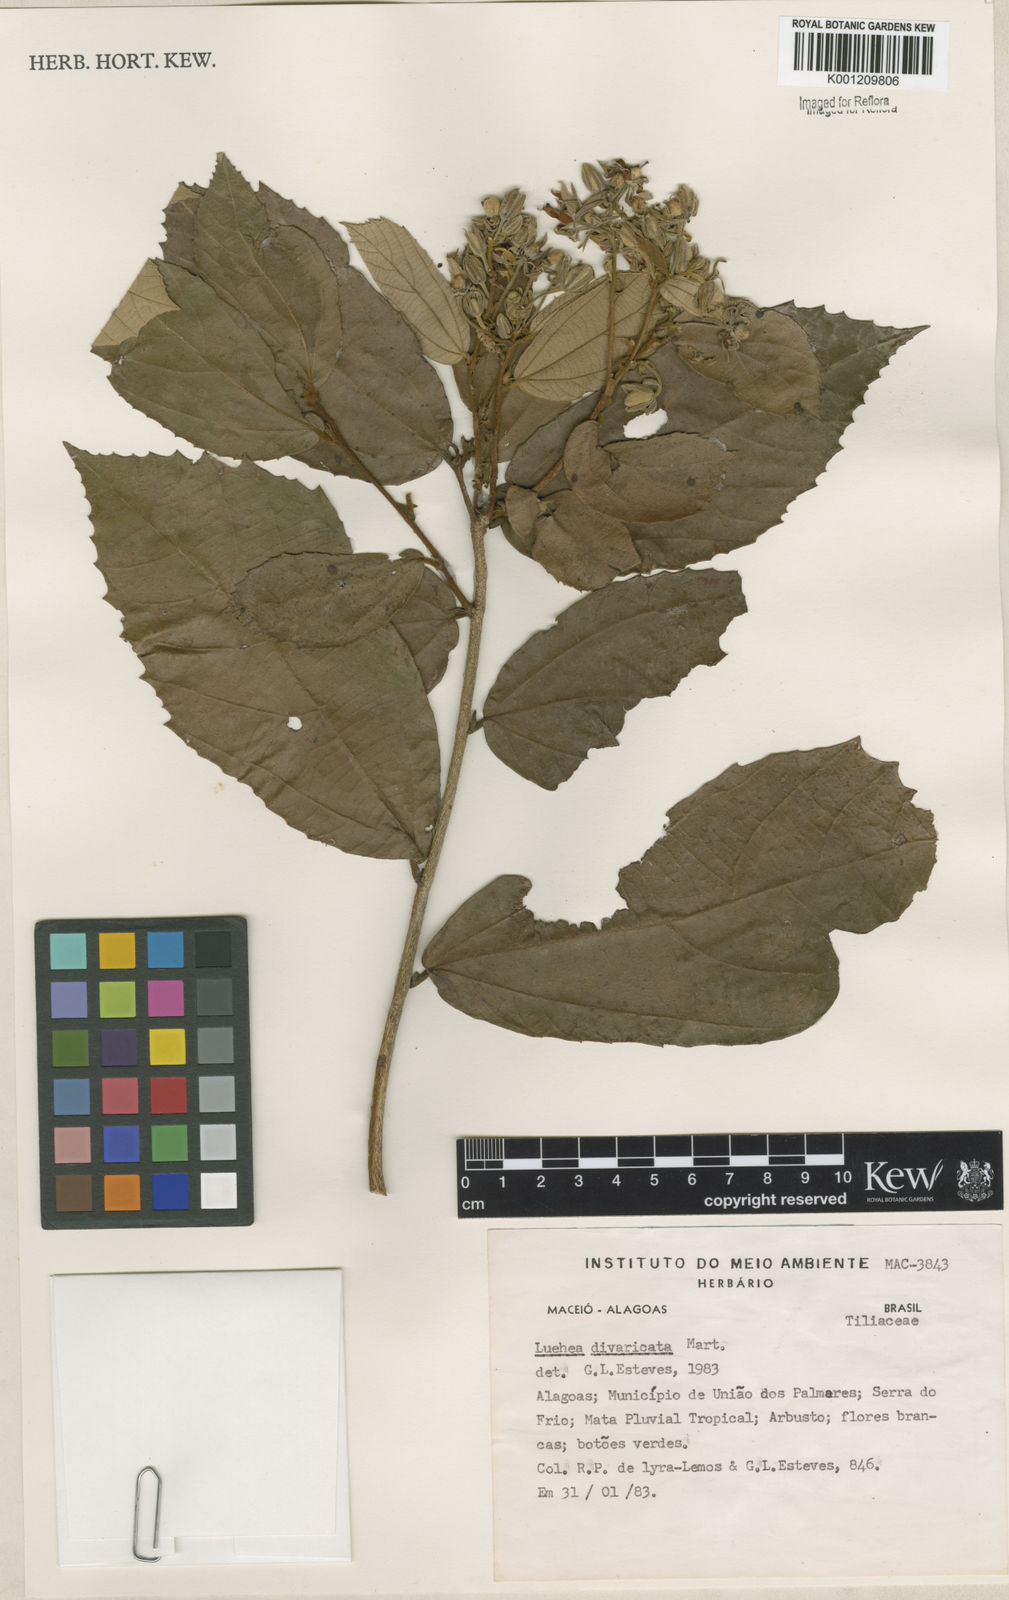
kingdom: Plantae
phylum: Tracheophyta
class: Magnoliopsida
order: Malvales
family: Malvaceae
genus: Luehea
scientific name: Luehea divaricata
